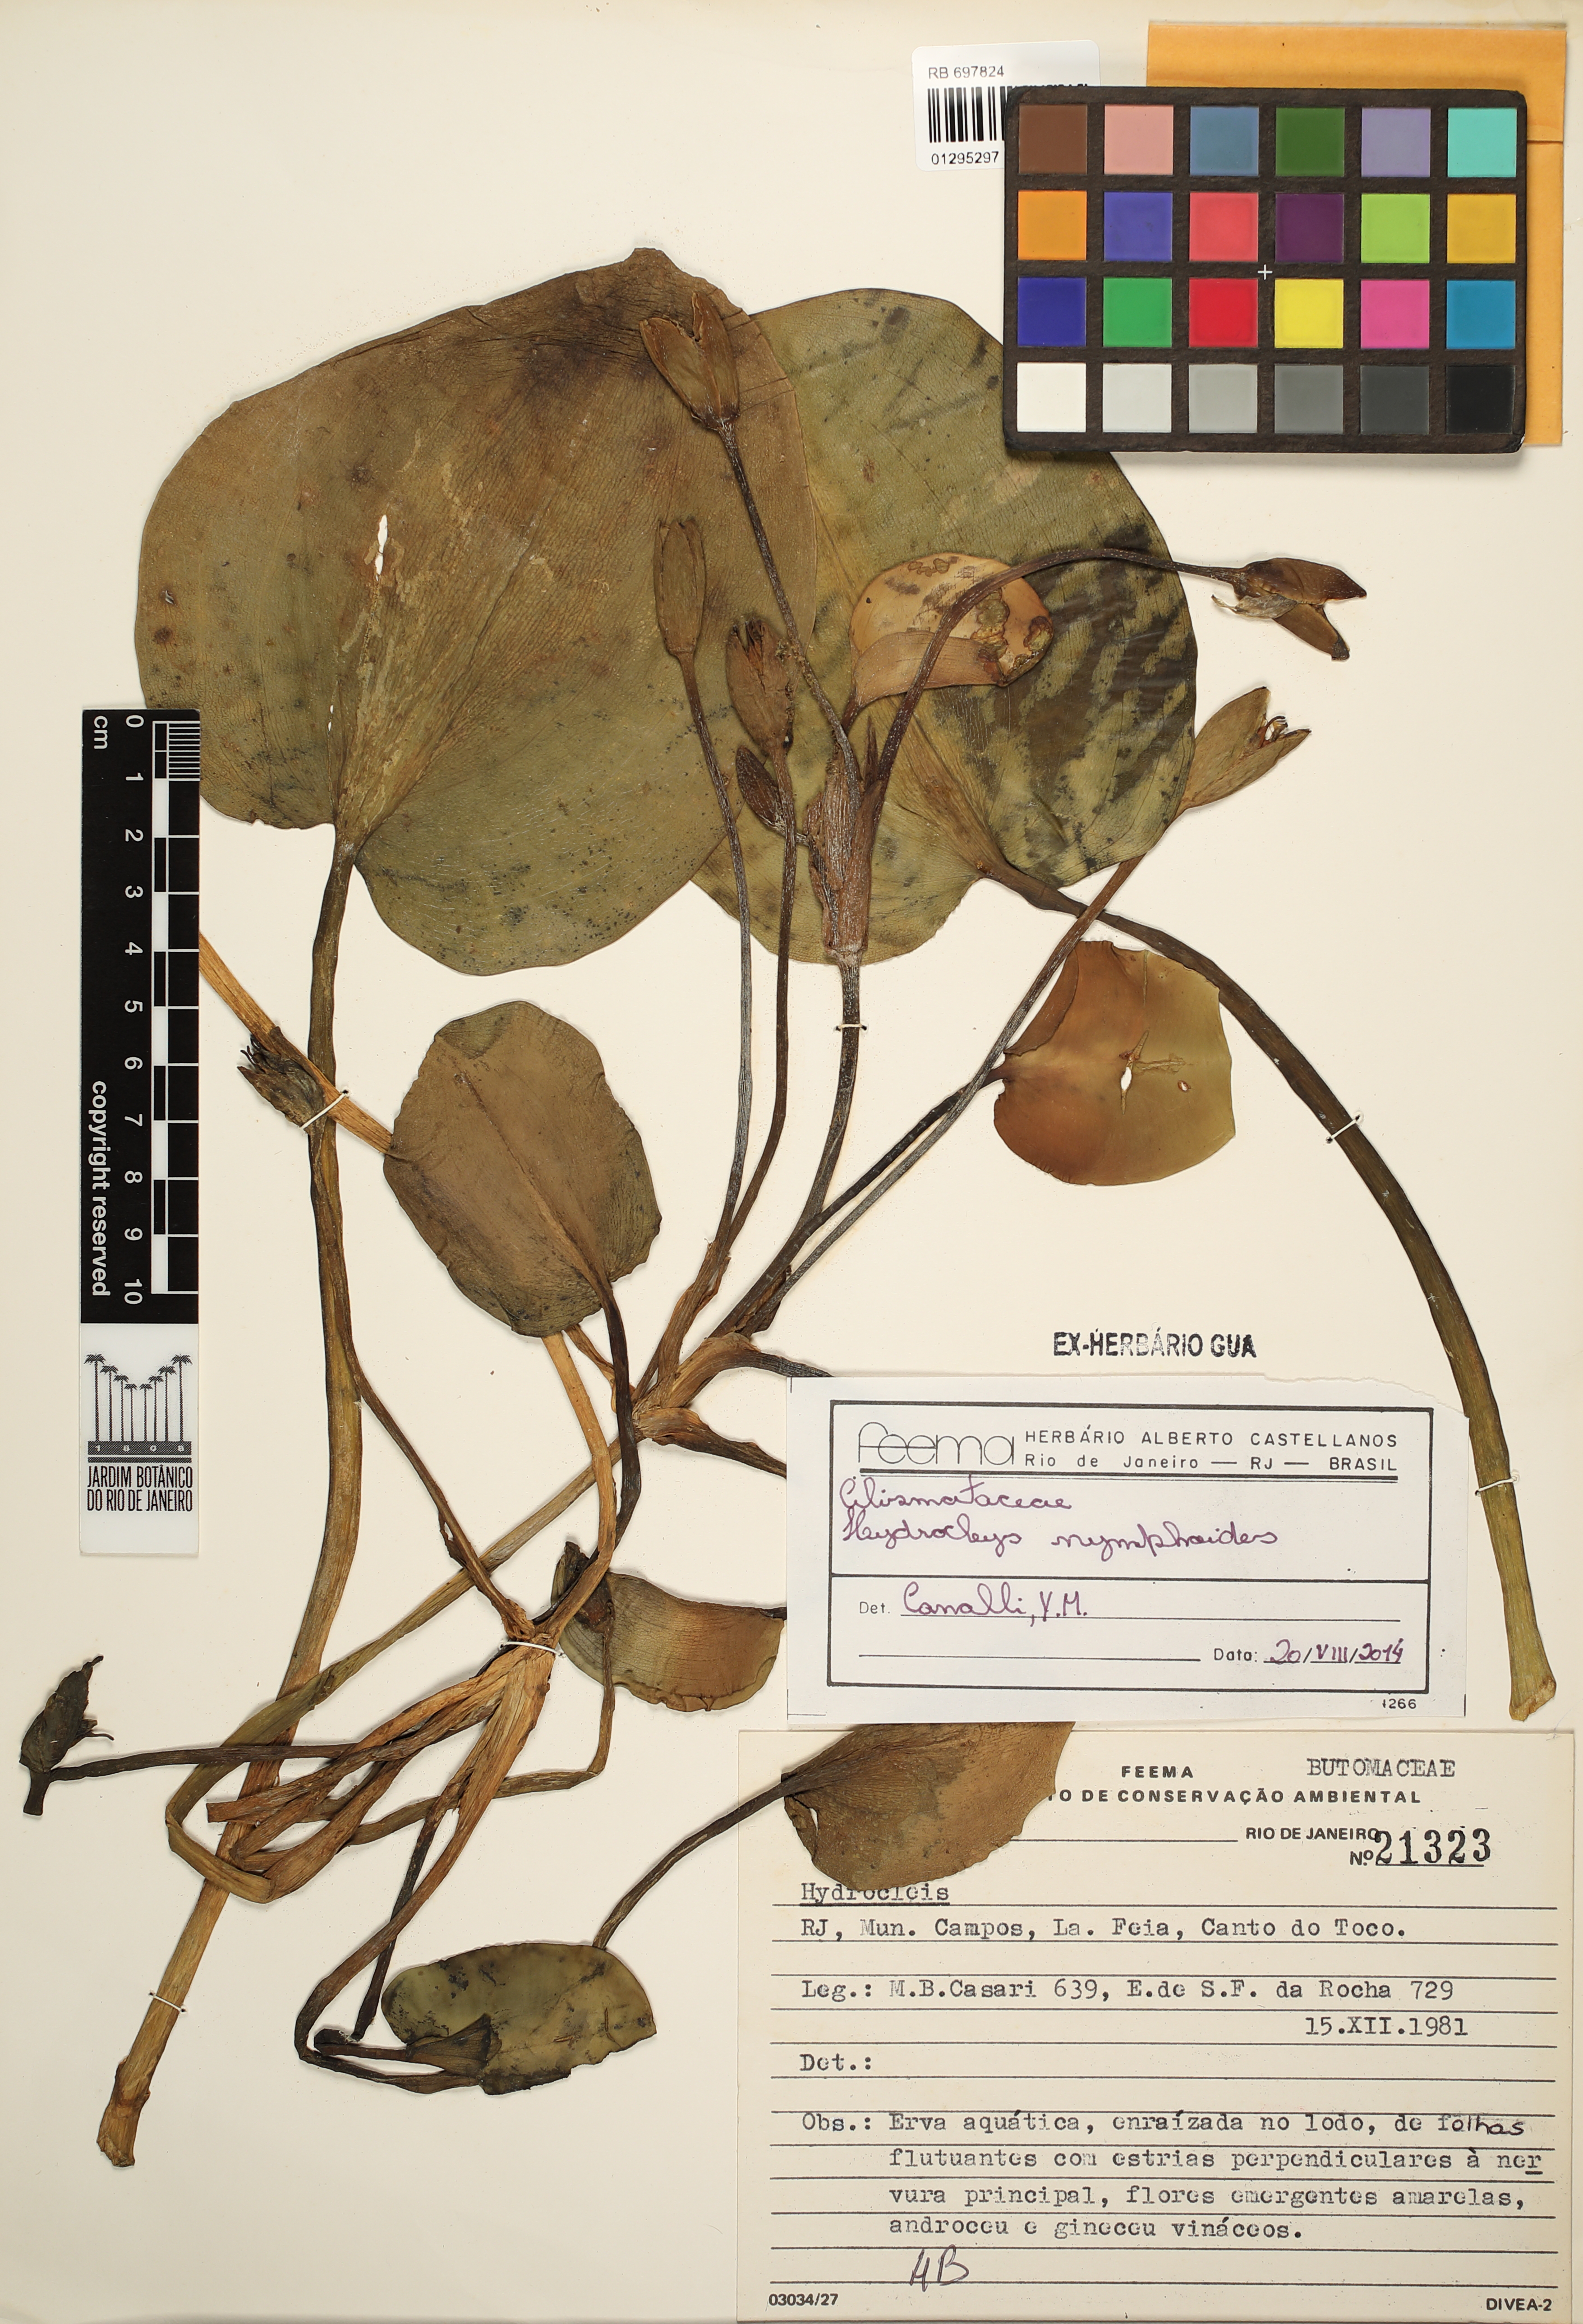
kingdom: Plantae
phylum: Tracheophyta
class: Liliopsida
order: Alismatales
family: Alismataceae
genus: Hydrocleys
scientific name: Hydrocleys nymphoides
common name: Water-poppy
